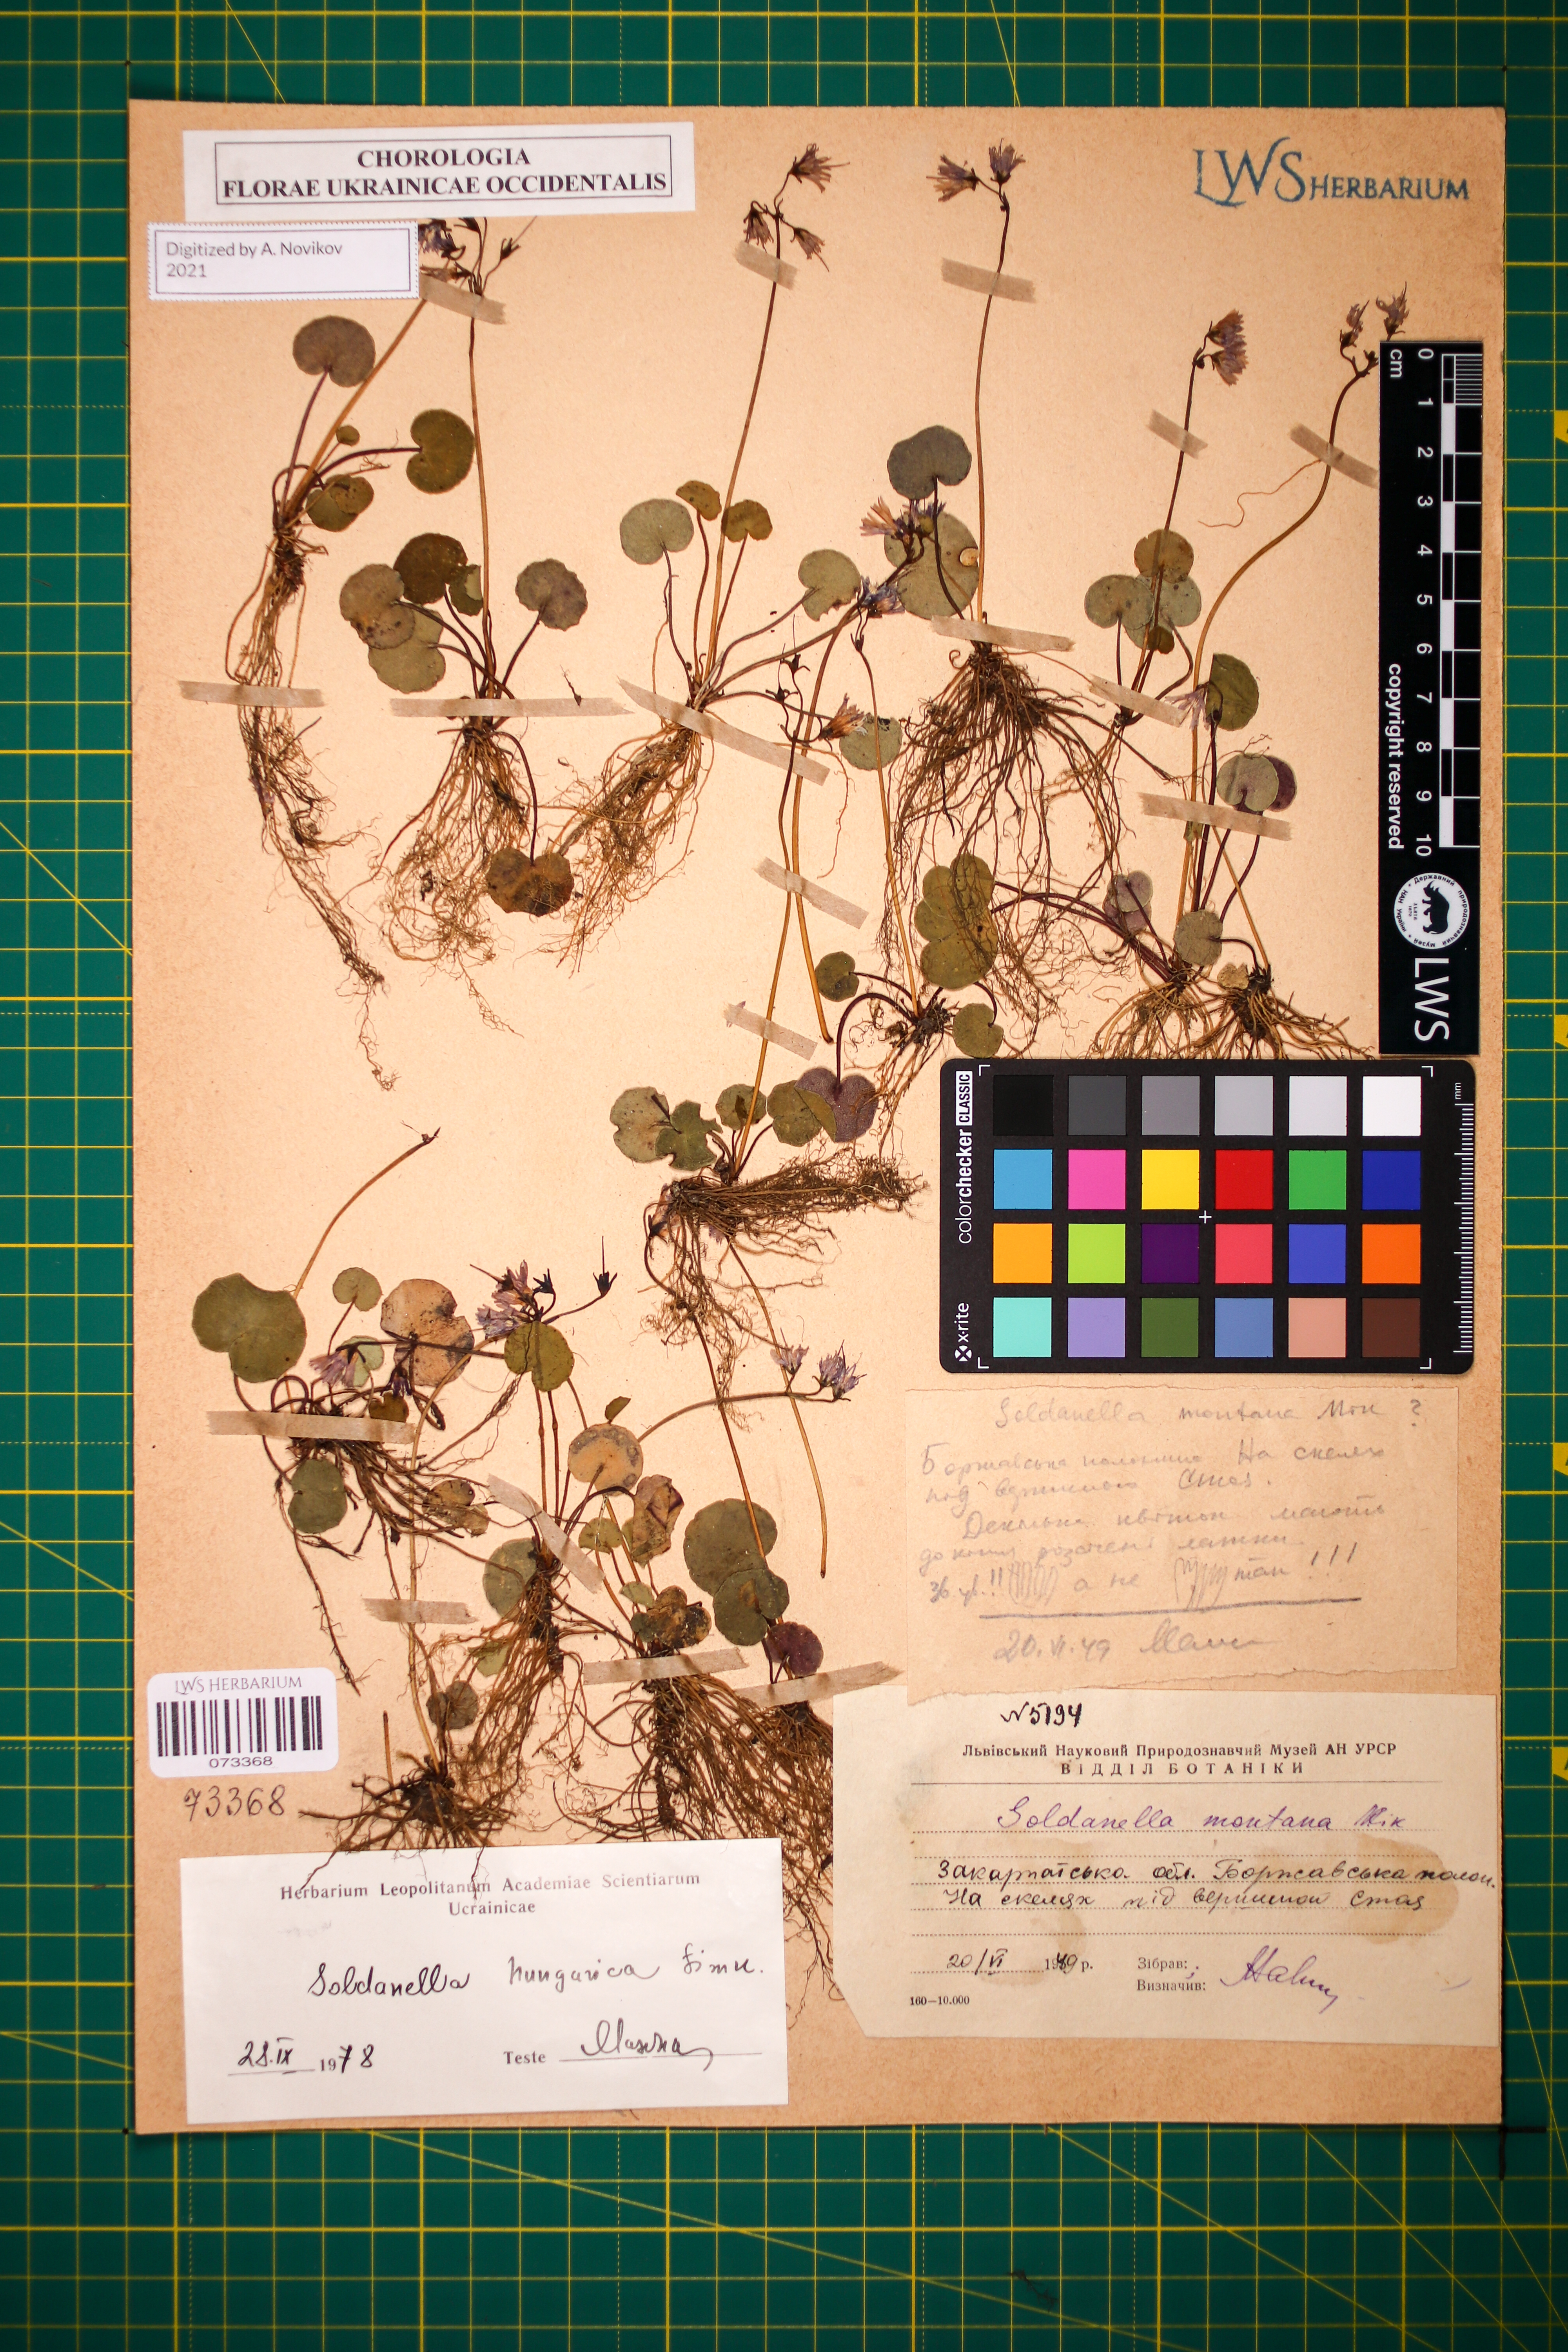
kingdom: Plantae
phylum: Tracheophyta
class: Magnoliopsida
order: Ericales
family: Primulaceae
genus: Soldanella
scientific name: Soldanella hungarica
